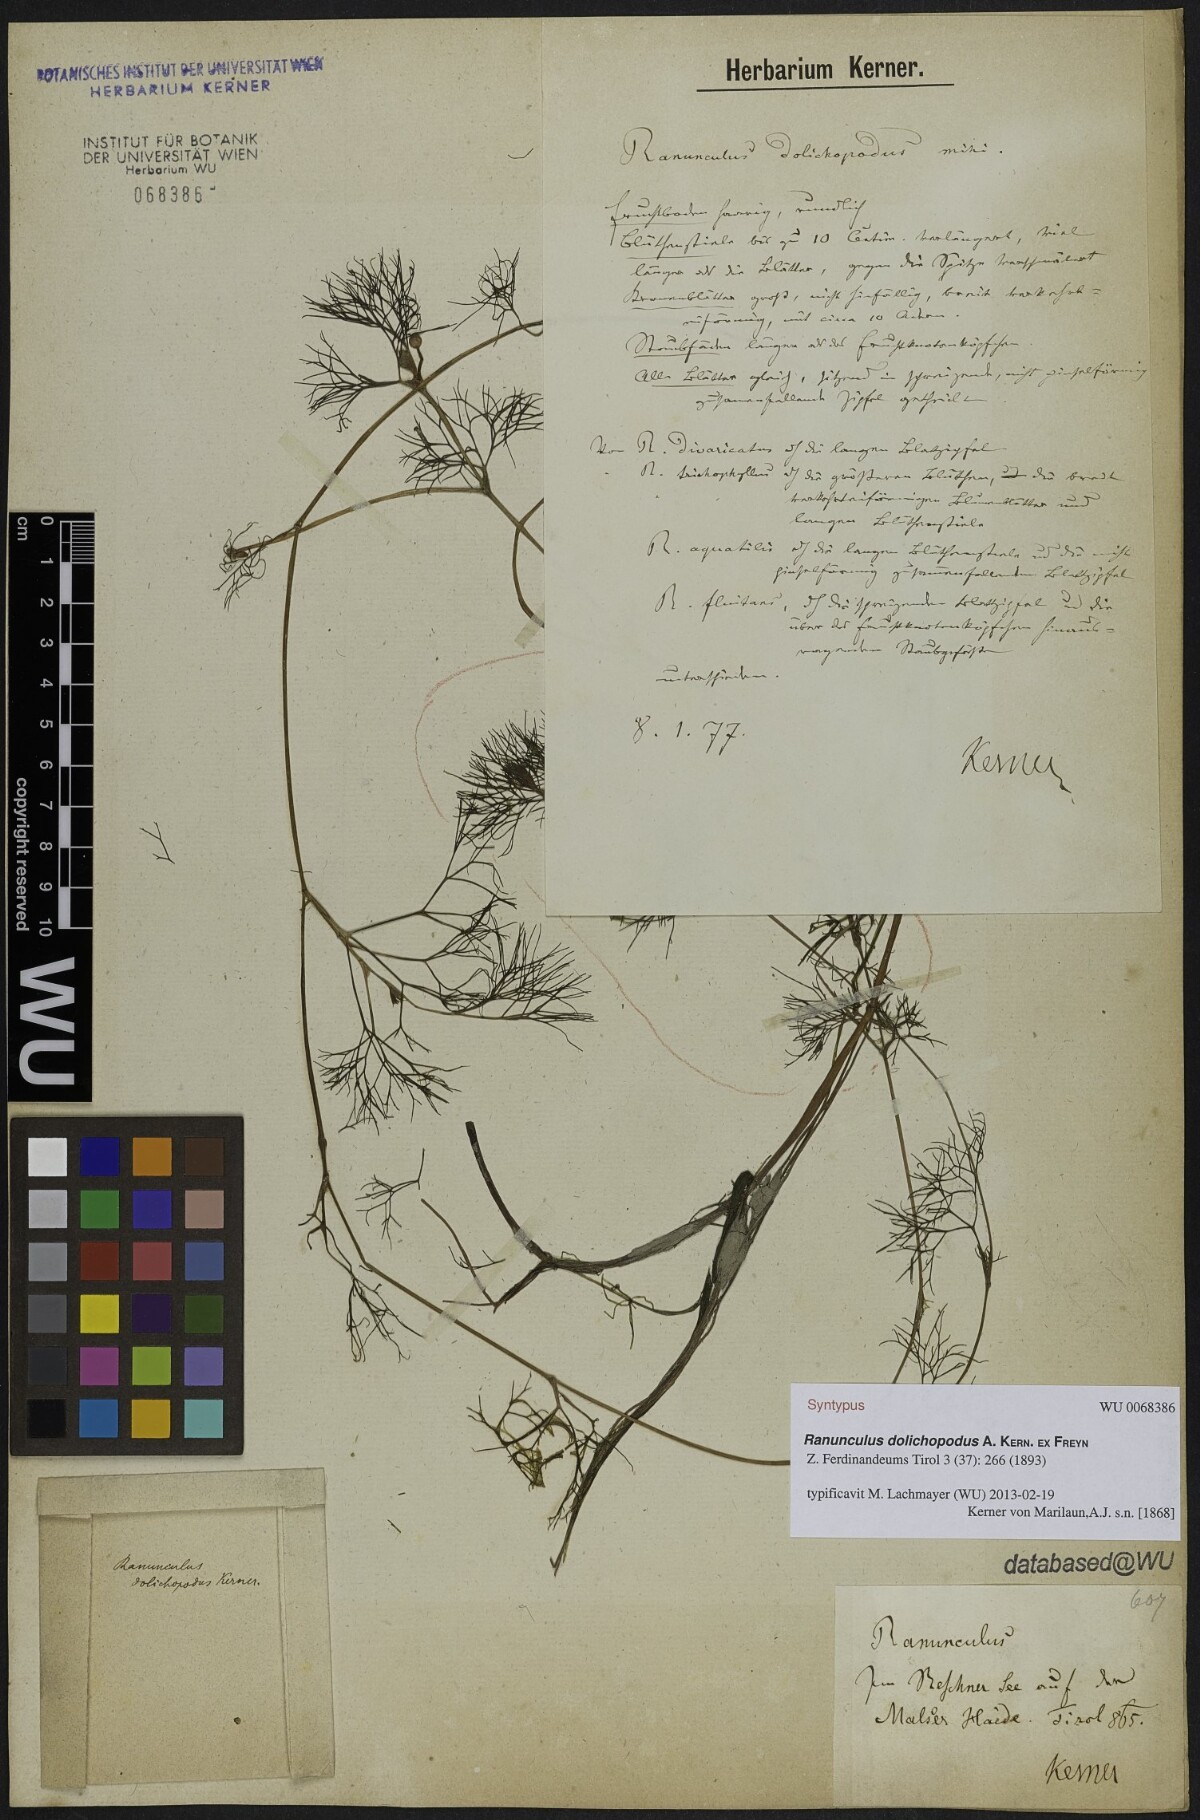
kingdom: Plantae
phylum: Tracheophyta
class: Magnoliopsida
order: Ranunculales
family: Ranunculaceae
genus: Ranunculus
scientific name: Ranunculus trichophyllus
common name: Thread-leaved water-crowfoot
